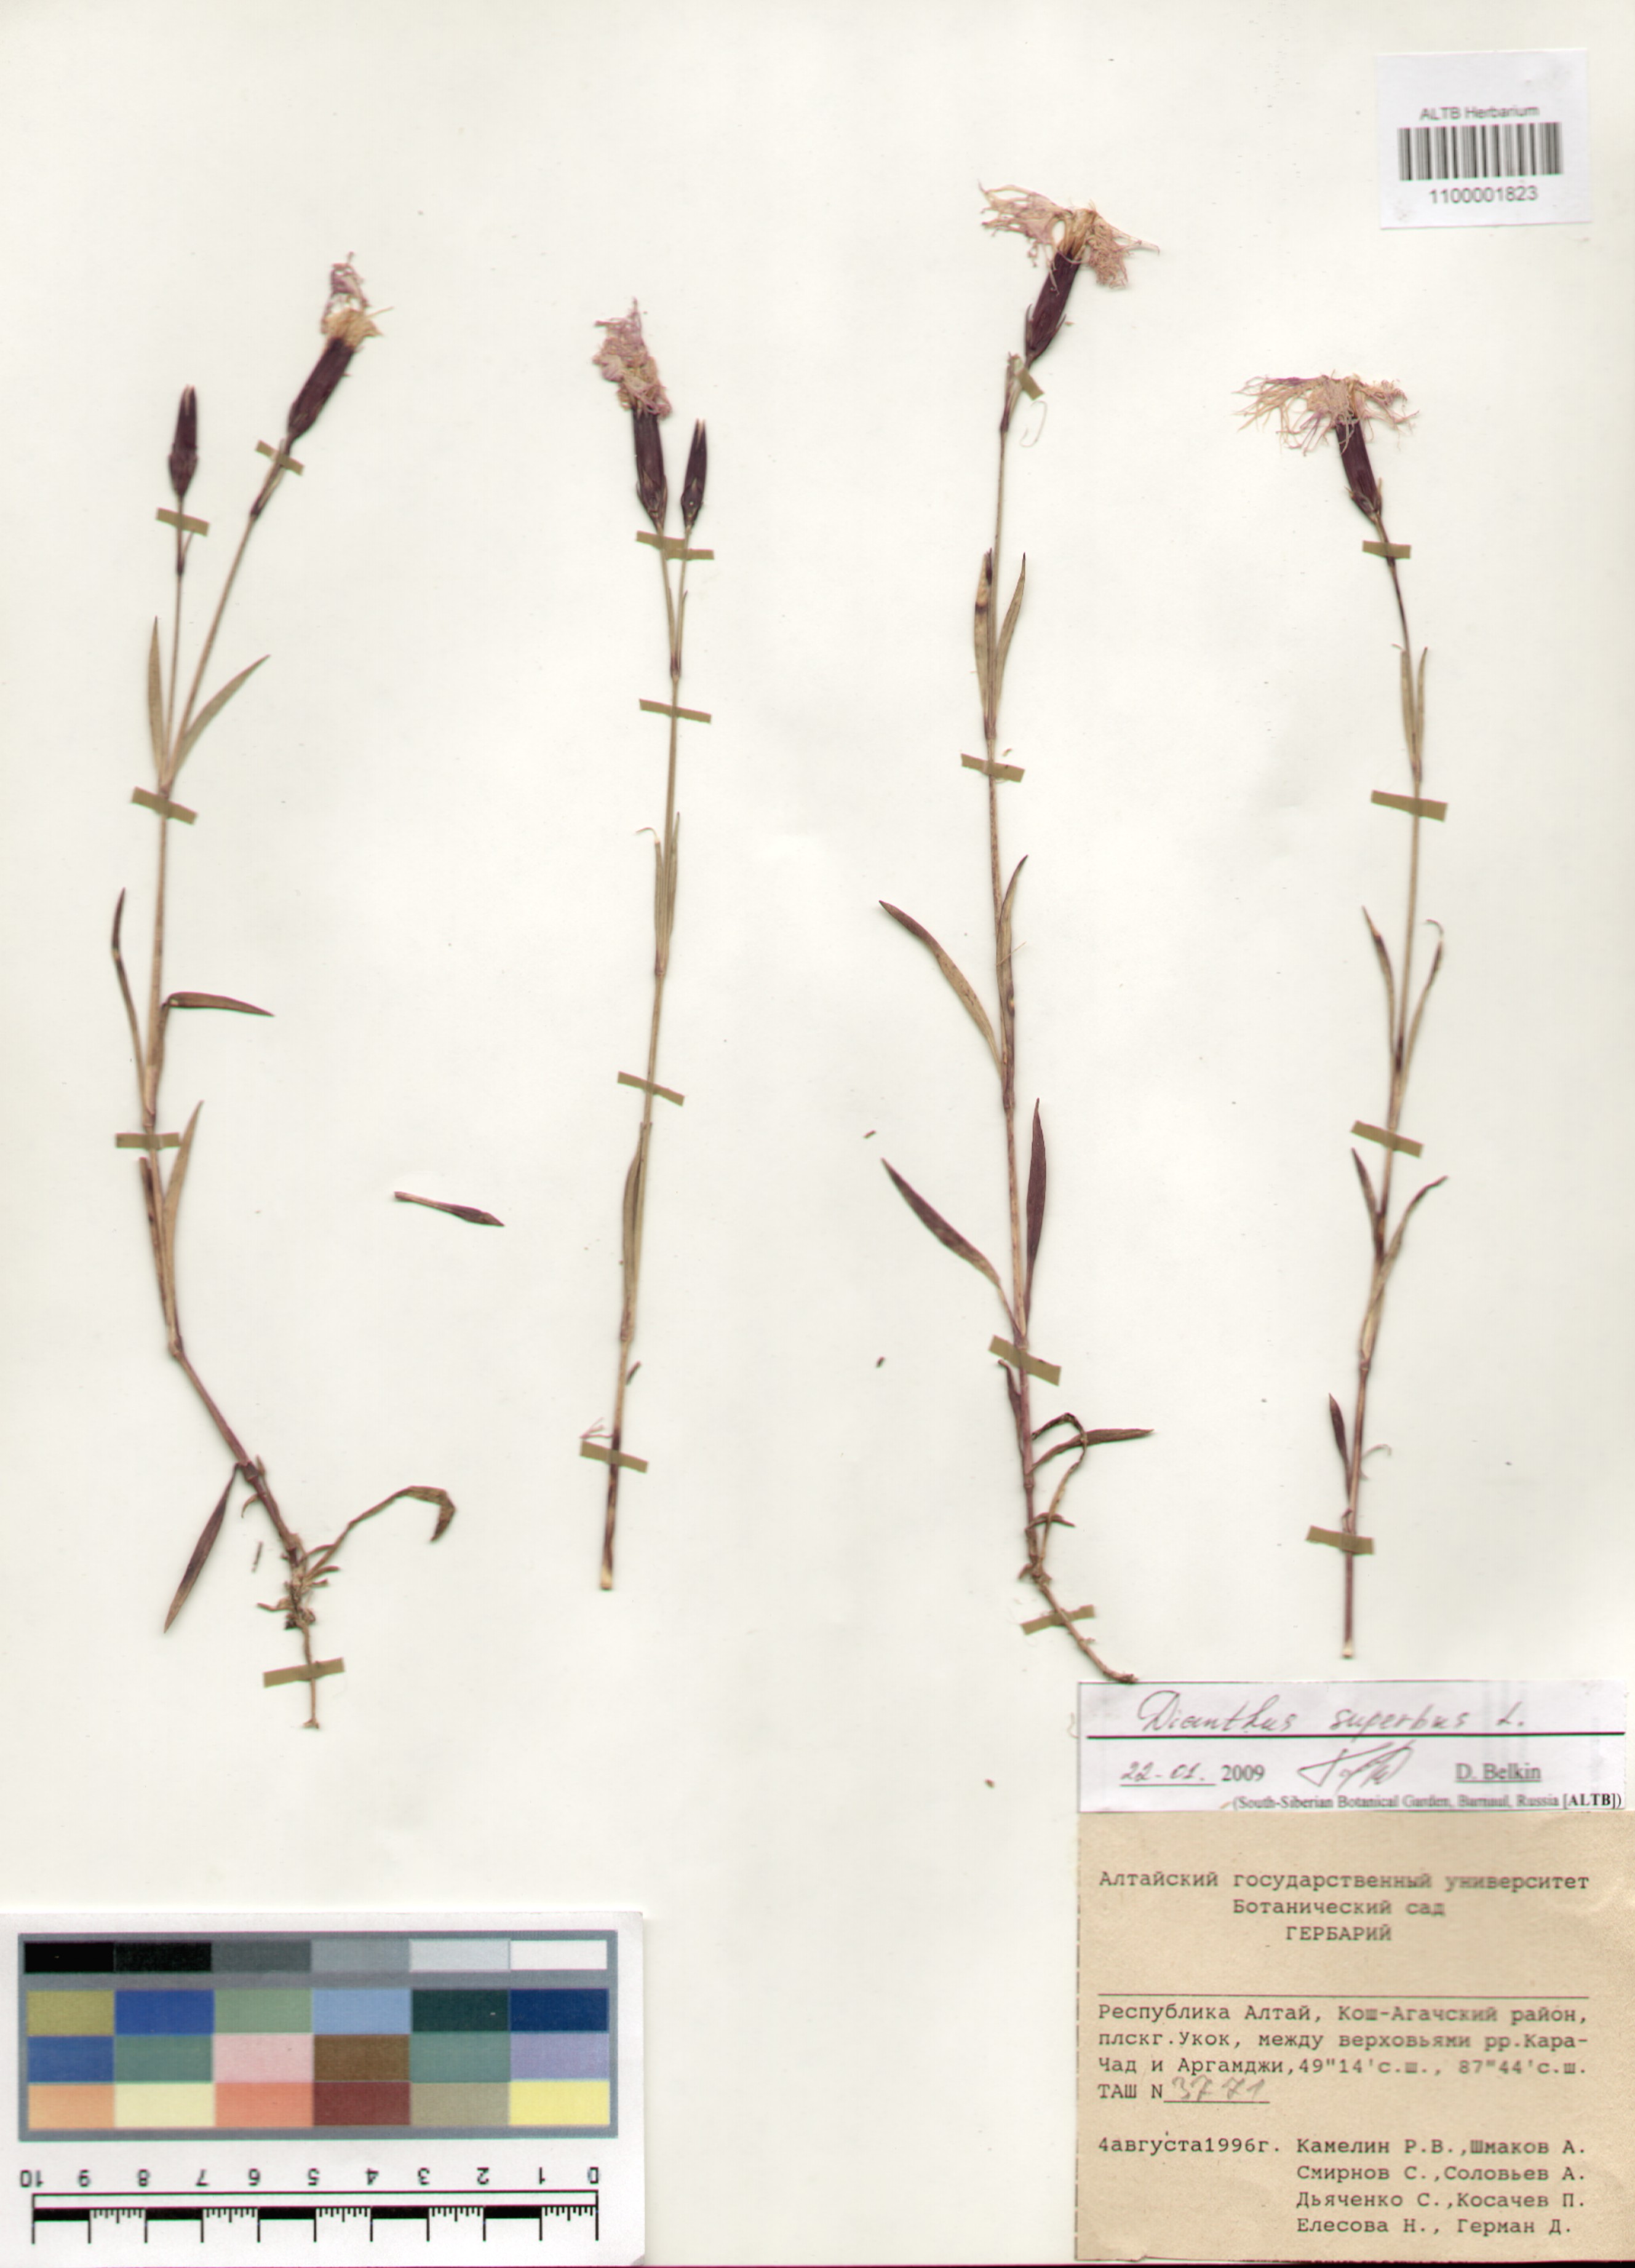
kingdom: Plantae
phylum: Tracheophyta
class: Magnoliopsida
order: Caryophyllales
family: Caryophyllaceae
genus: Dianthus
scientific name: Dianthus superbus
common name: Fringed pink
